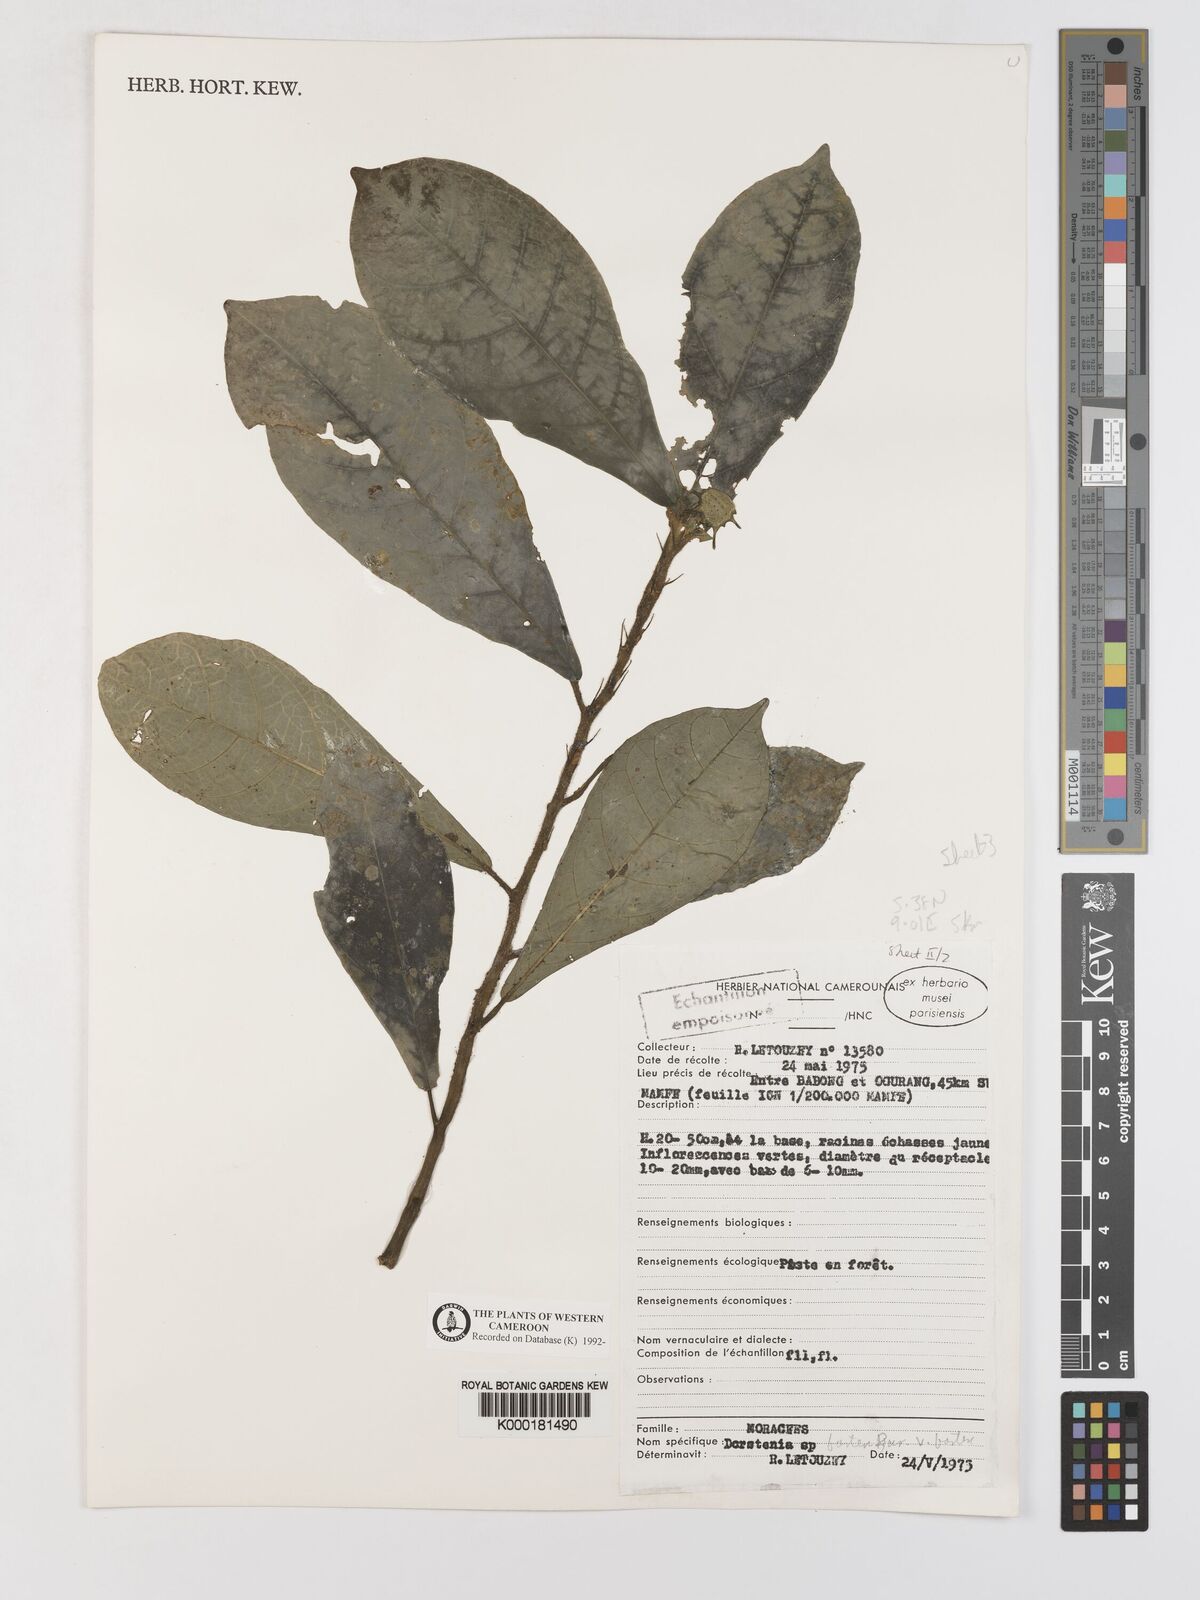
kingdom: Plantae
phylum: Tracheophyta
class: Magnoliopsida
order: Rosales
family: Moraceae
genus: Dorstenia
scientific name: Dorstenia barteri
